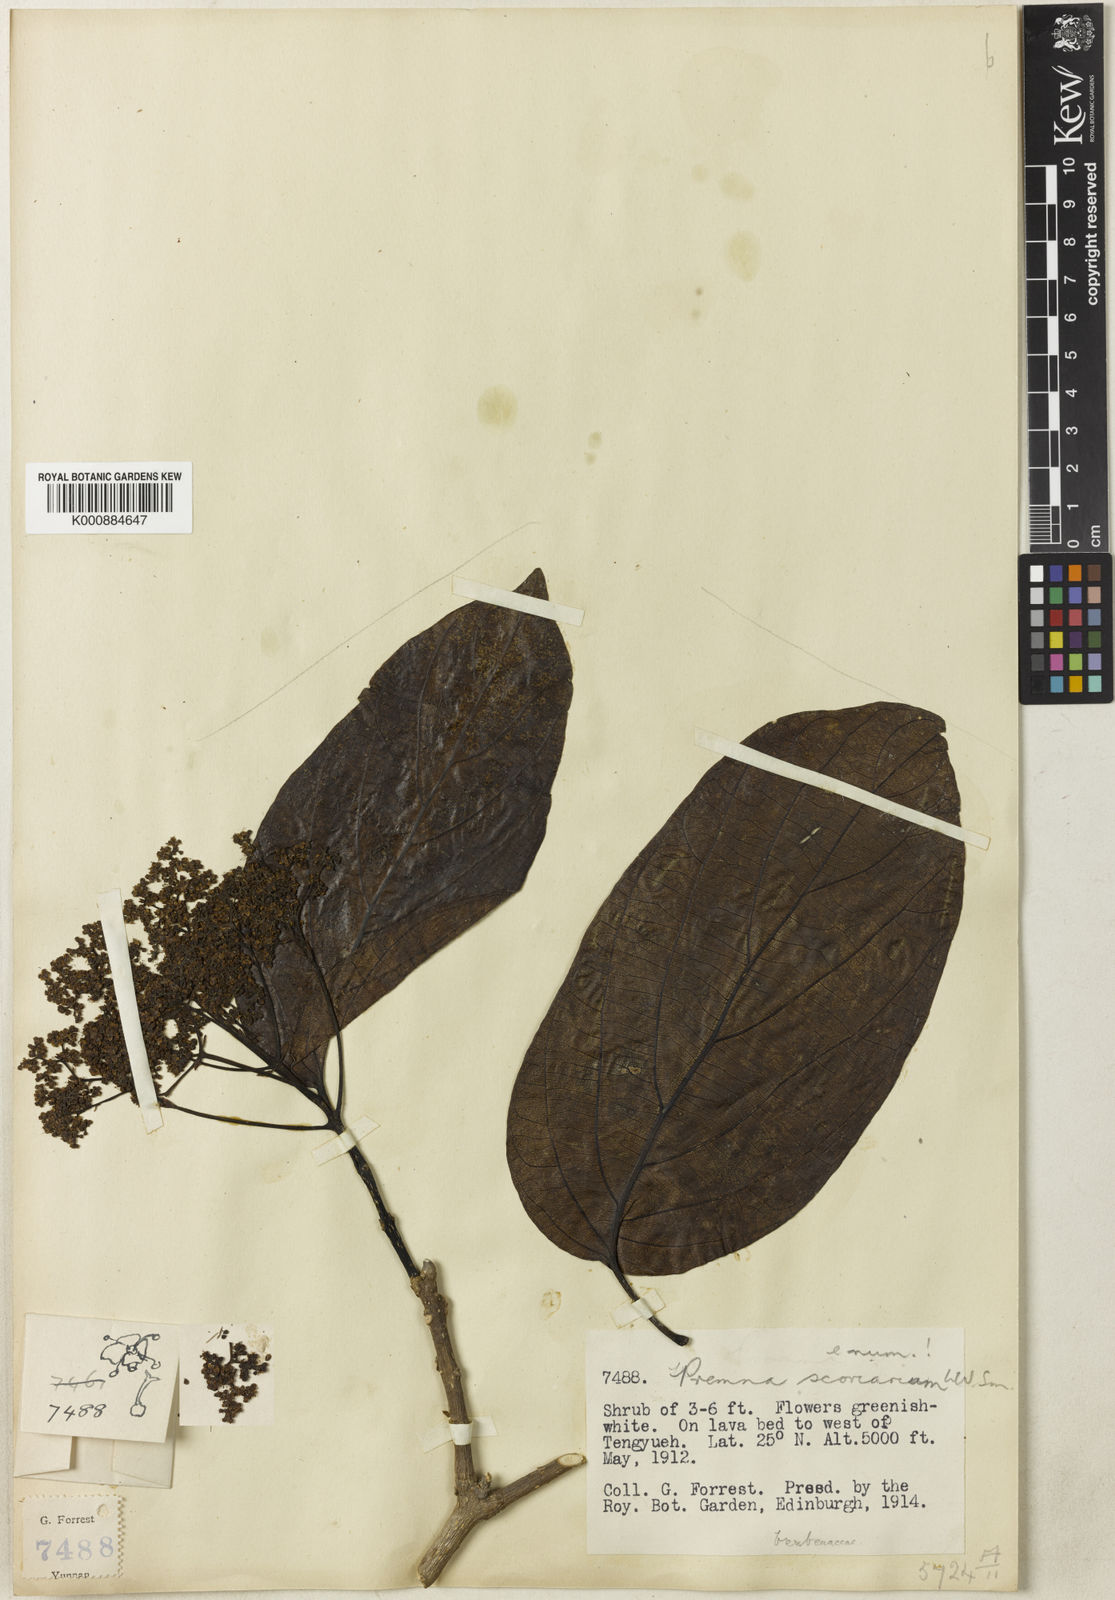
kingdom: Plantae
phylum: Tracheophyta
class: Magnoliopsida
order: Lamiales
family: Lamiaceae
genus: Premna
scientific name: Premna scoriarum
